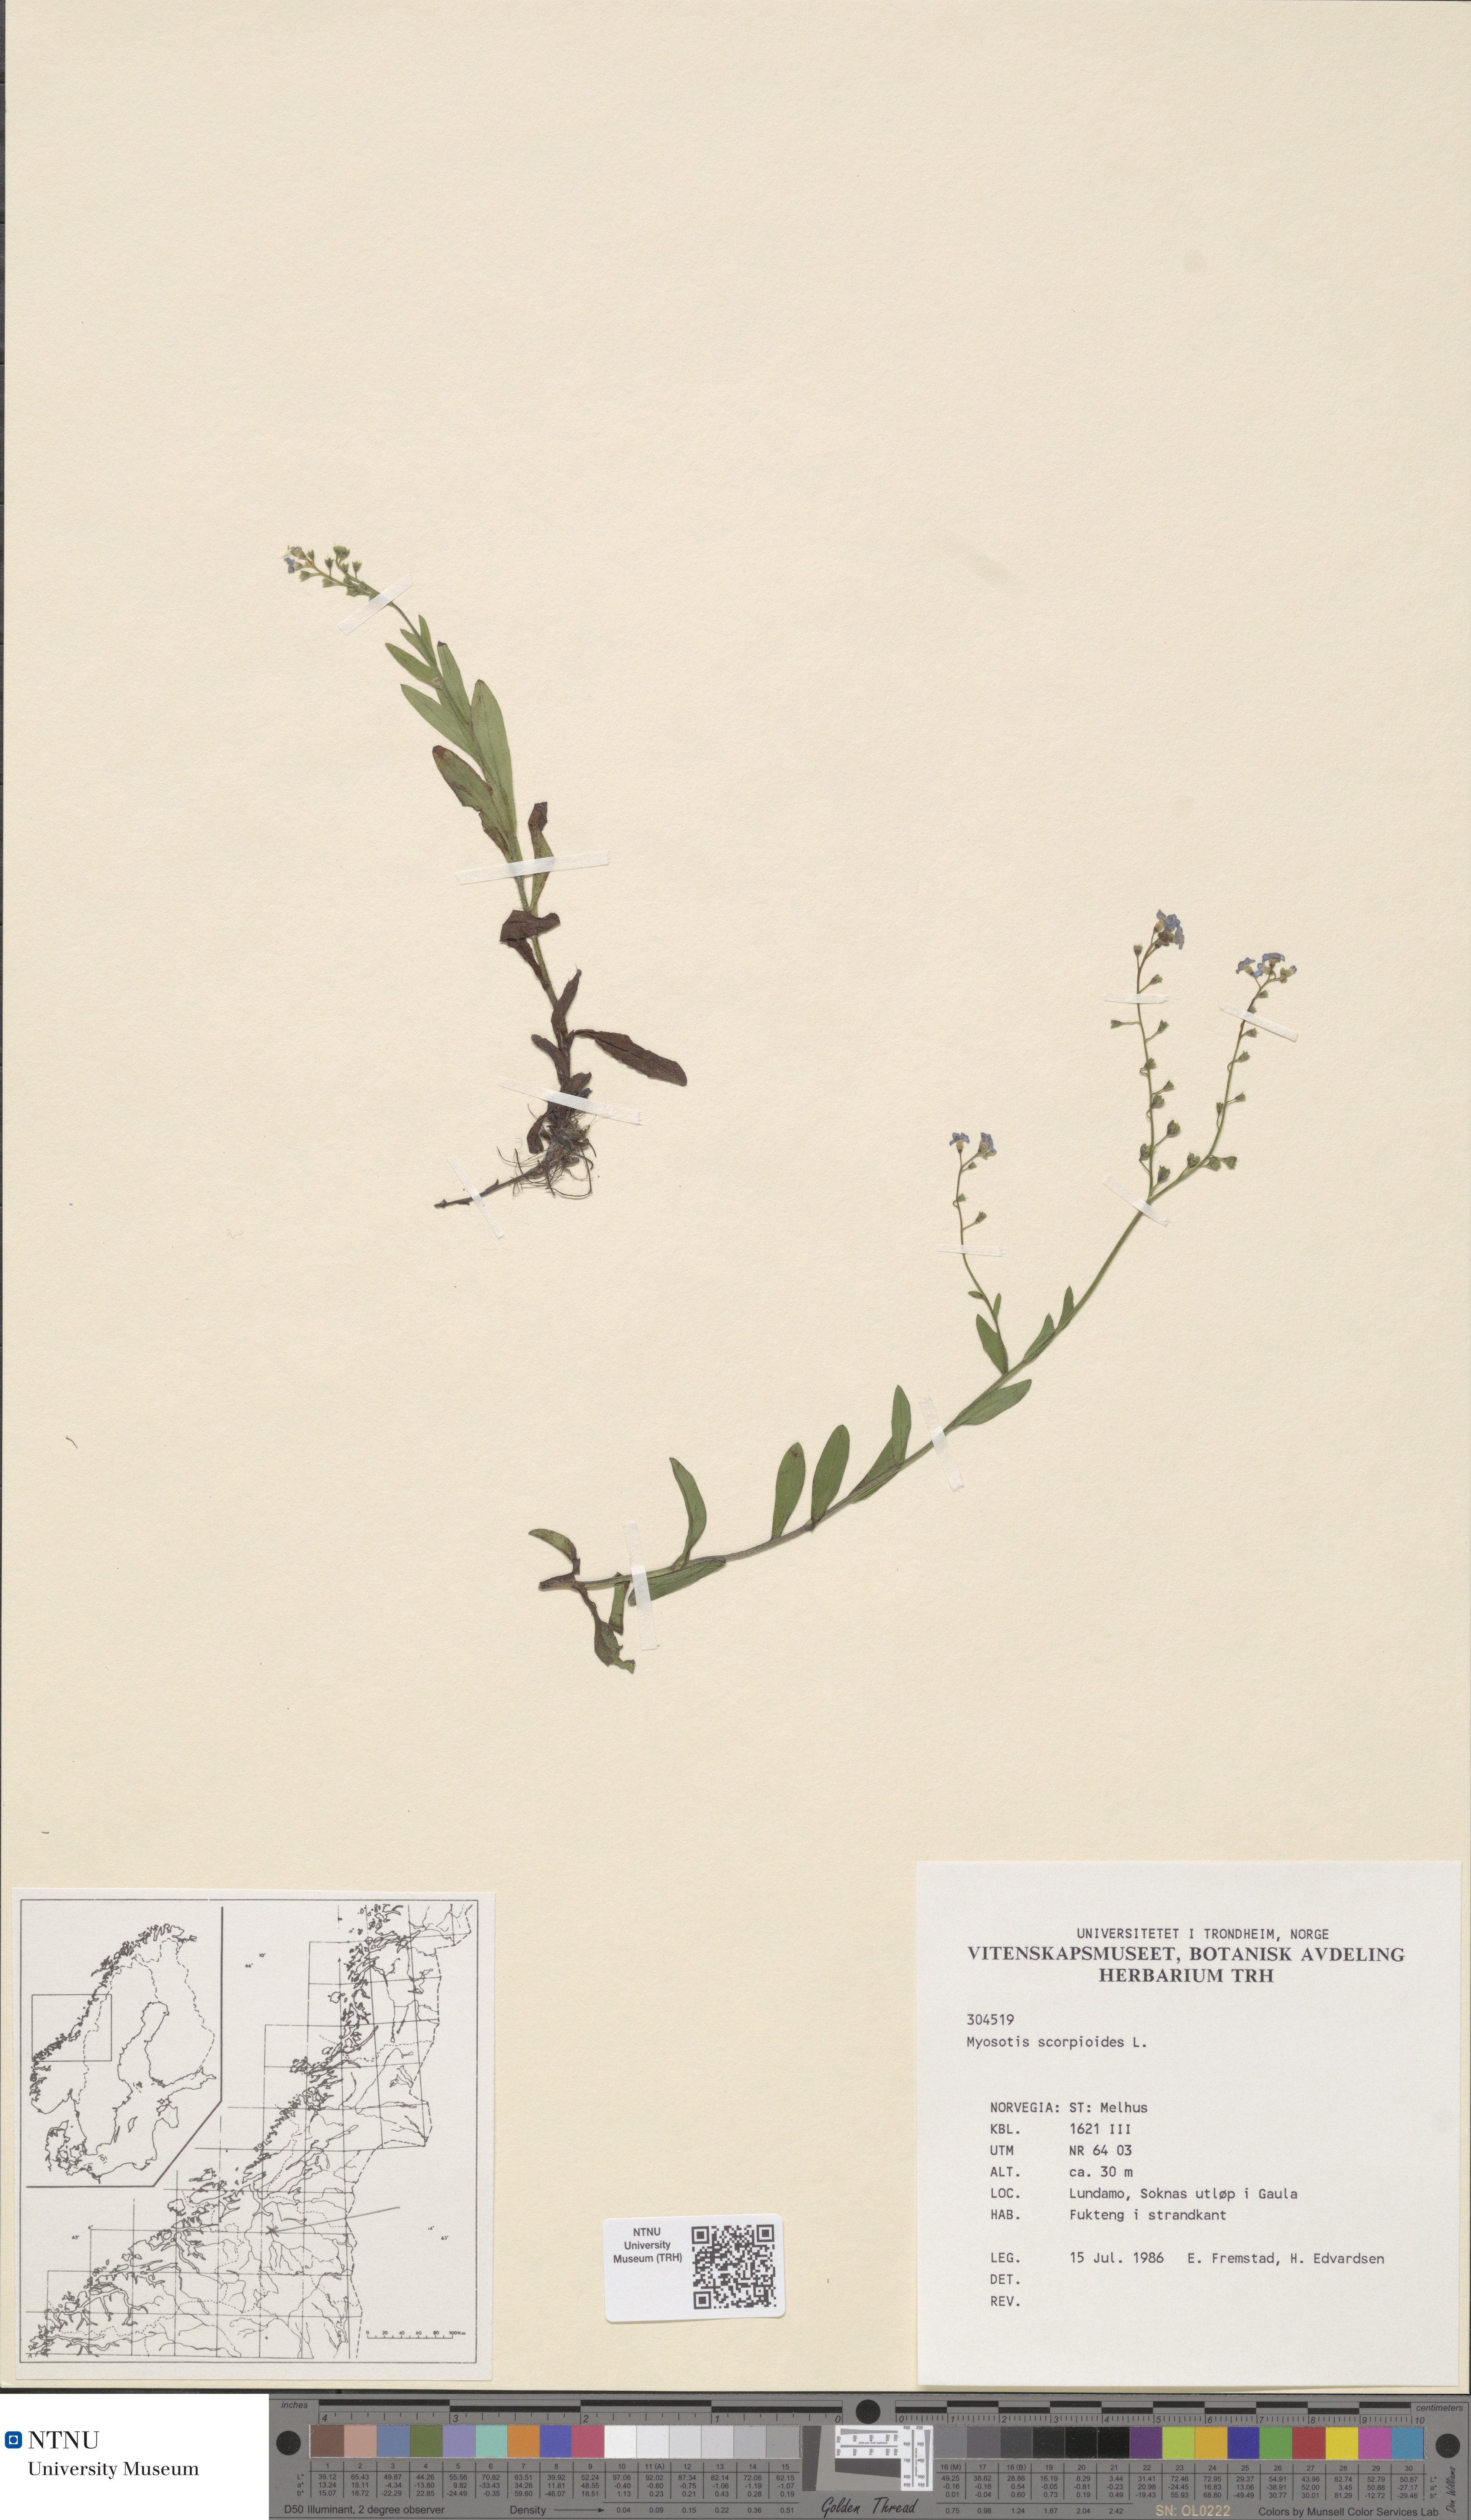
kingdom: Plantae
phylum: Tracheophyta
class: Magnoliopsida
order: Boraginales
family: Boraginaceae
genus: Myosotis
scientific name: Myosotis scorpioides
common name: Water forget-me-not
